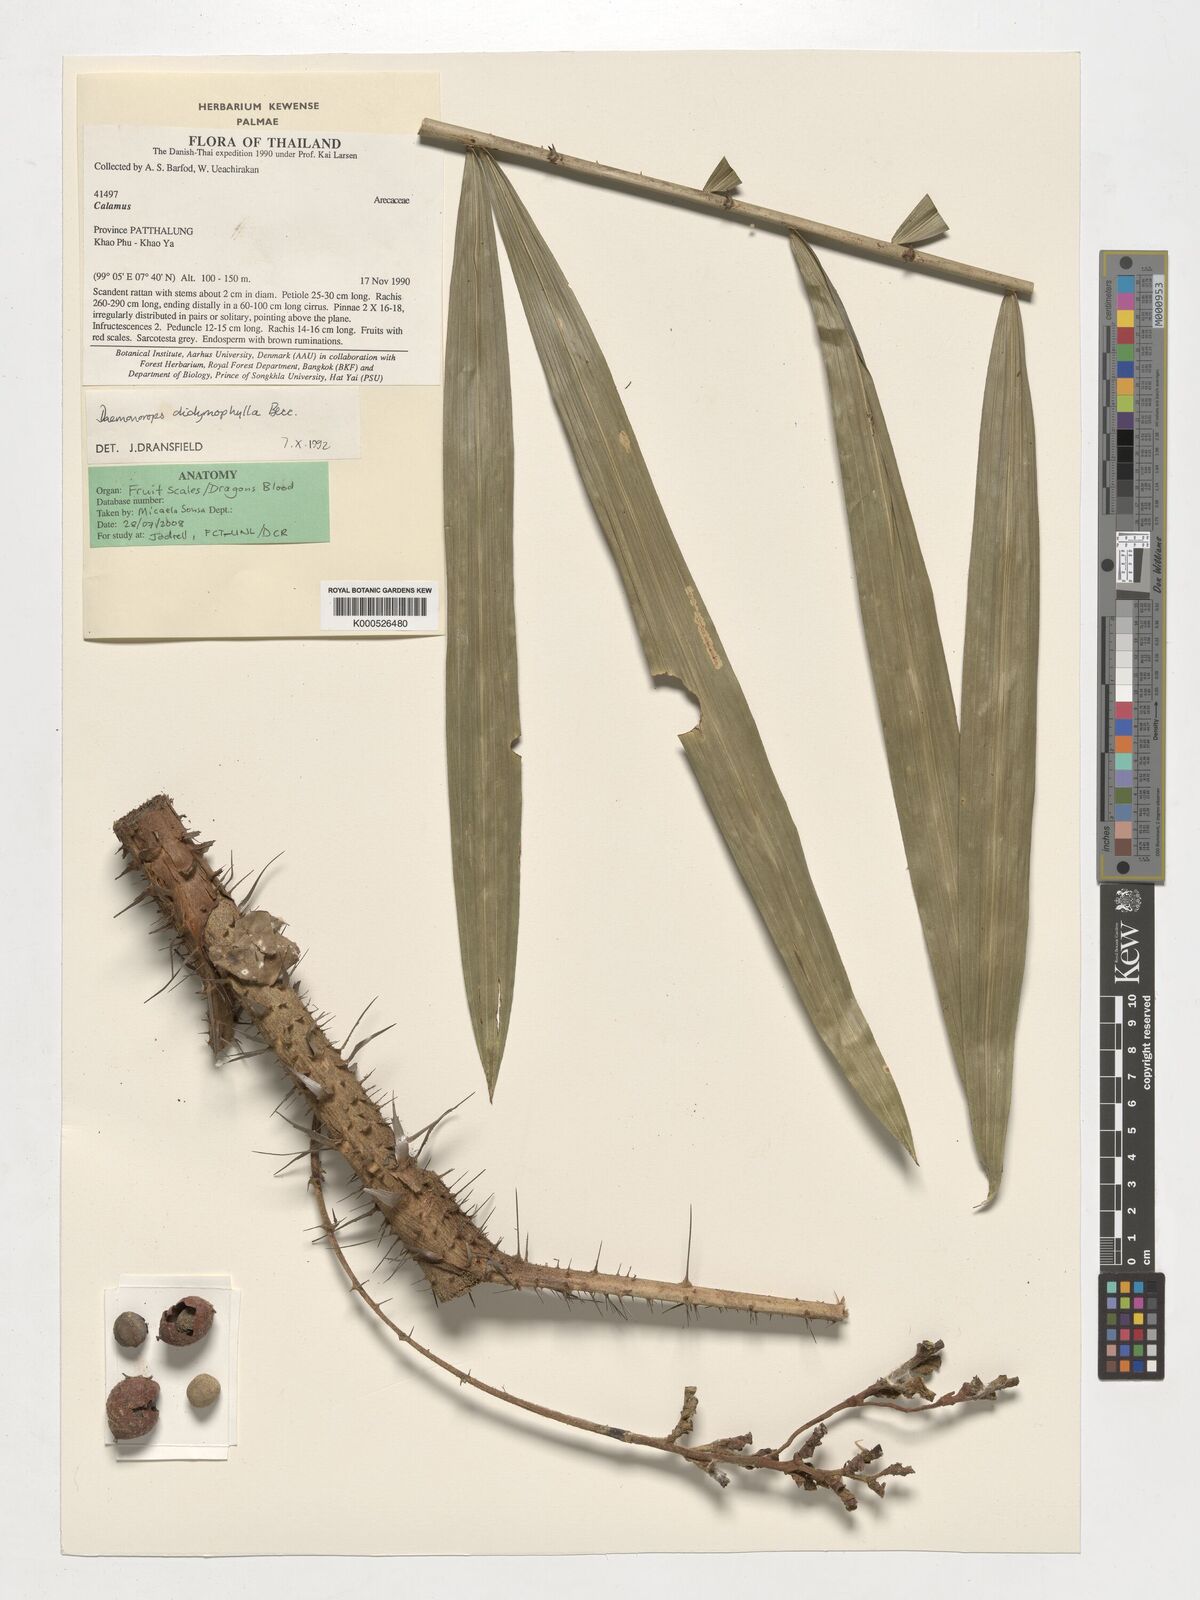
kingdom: Plantae
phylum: Tracheophyta
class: Liliopsida
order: Arecales
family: Arecaceae
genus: Calamus
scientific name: Calamus gracilipes
